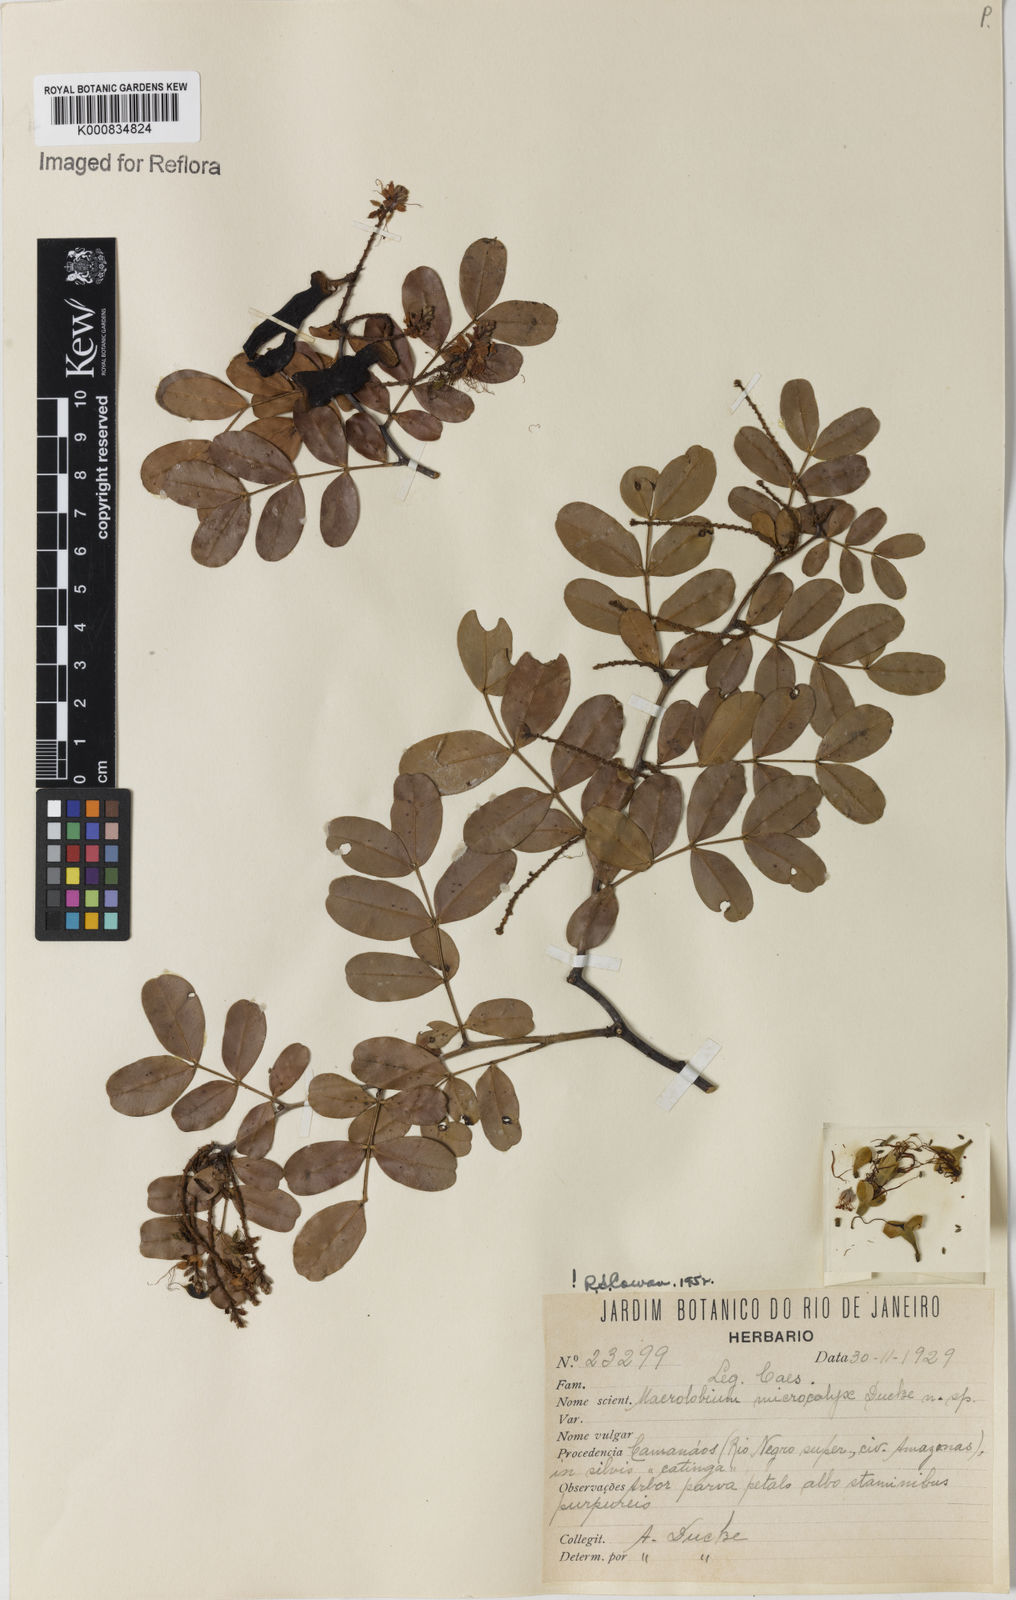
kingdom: Plantae
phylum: Tracheophyta
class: Magnoliopsida
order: Fabales
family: Fabaceae
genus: Macrolobium
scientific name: Macrolobium microcalyx
